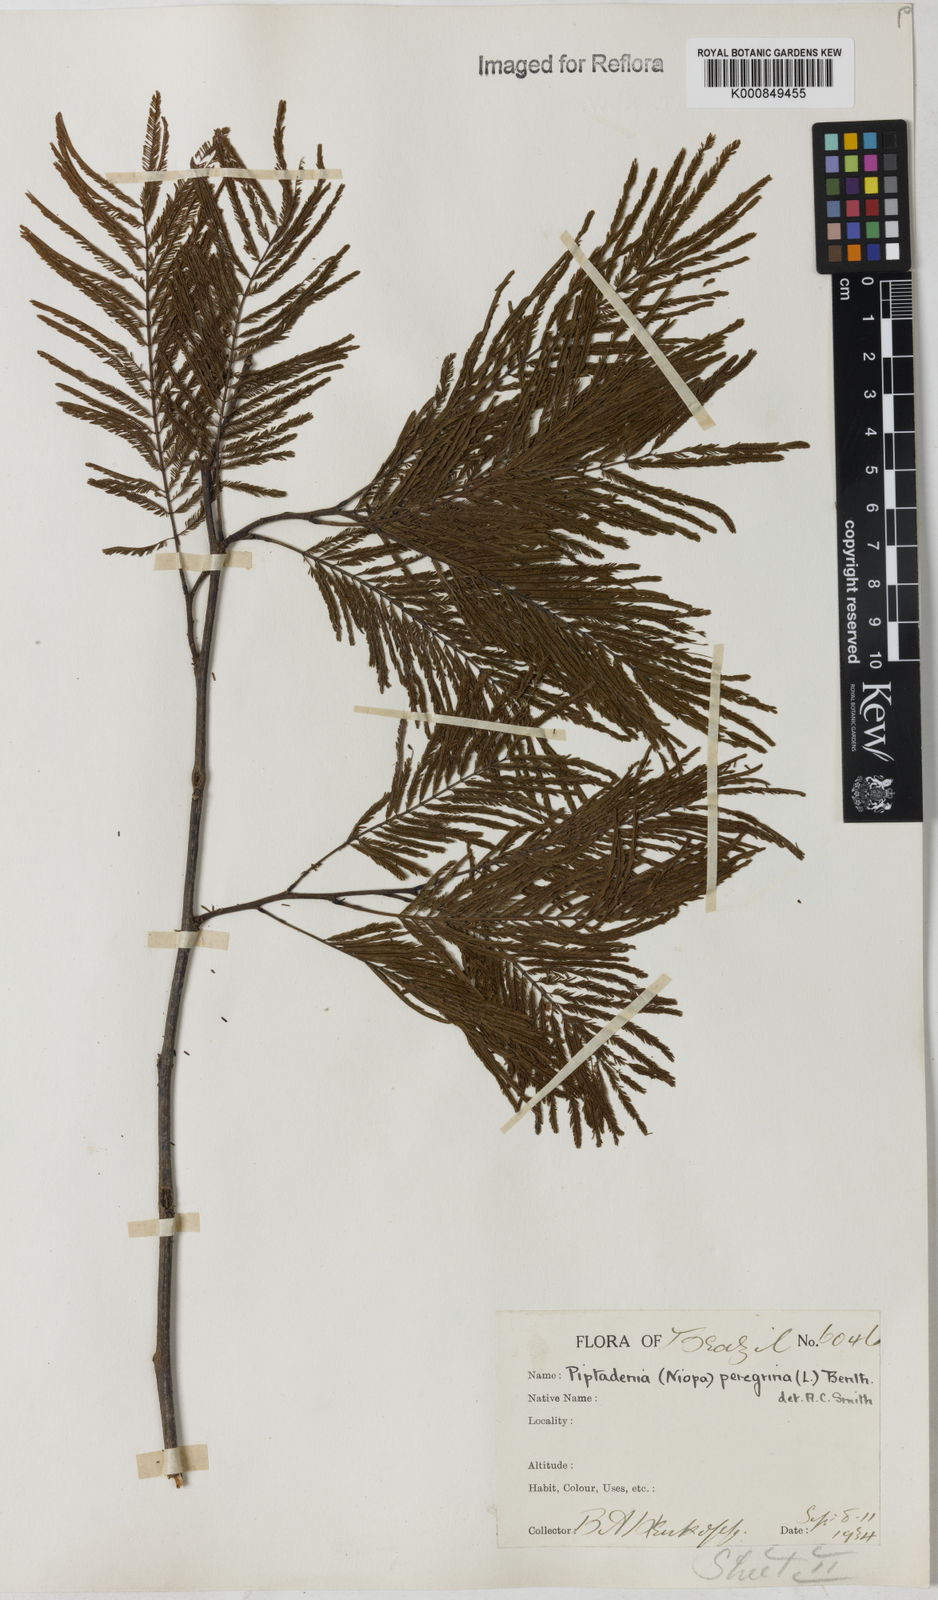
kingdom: Plantae
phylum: Tracheophyta
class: Magnoliopsida
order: Fabales
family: Fabaceae
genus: Anadenanthera
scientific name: Anadenanthera peregrina
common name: Cohoba
